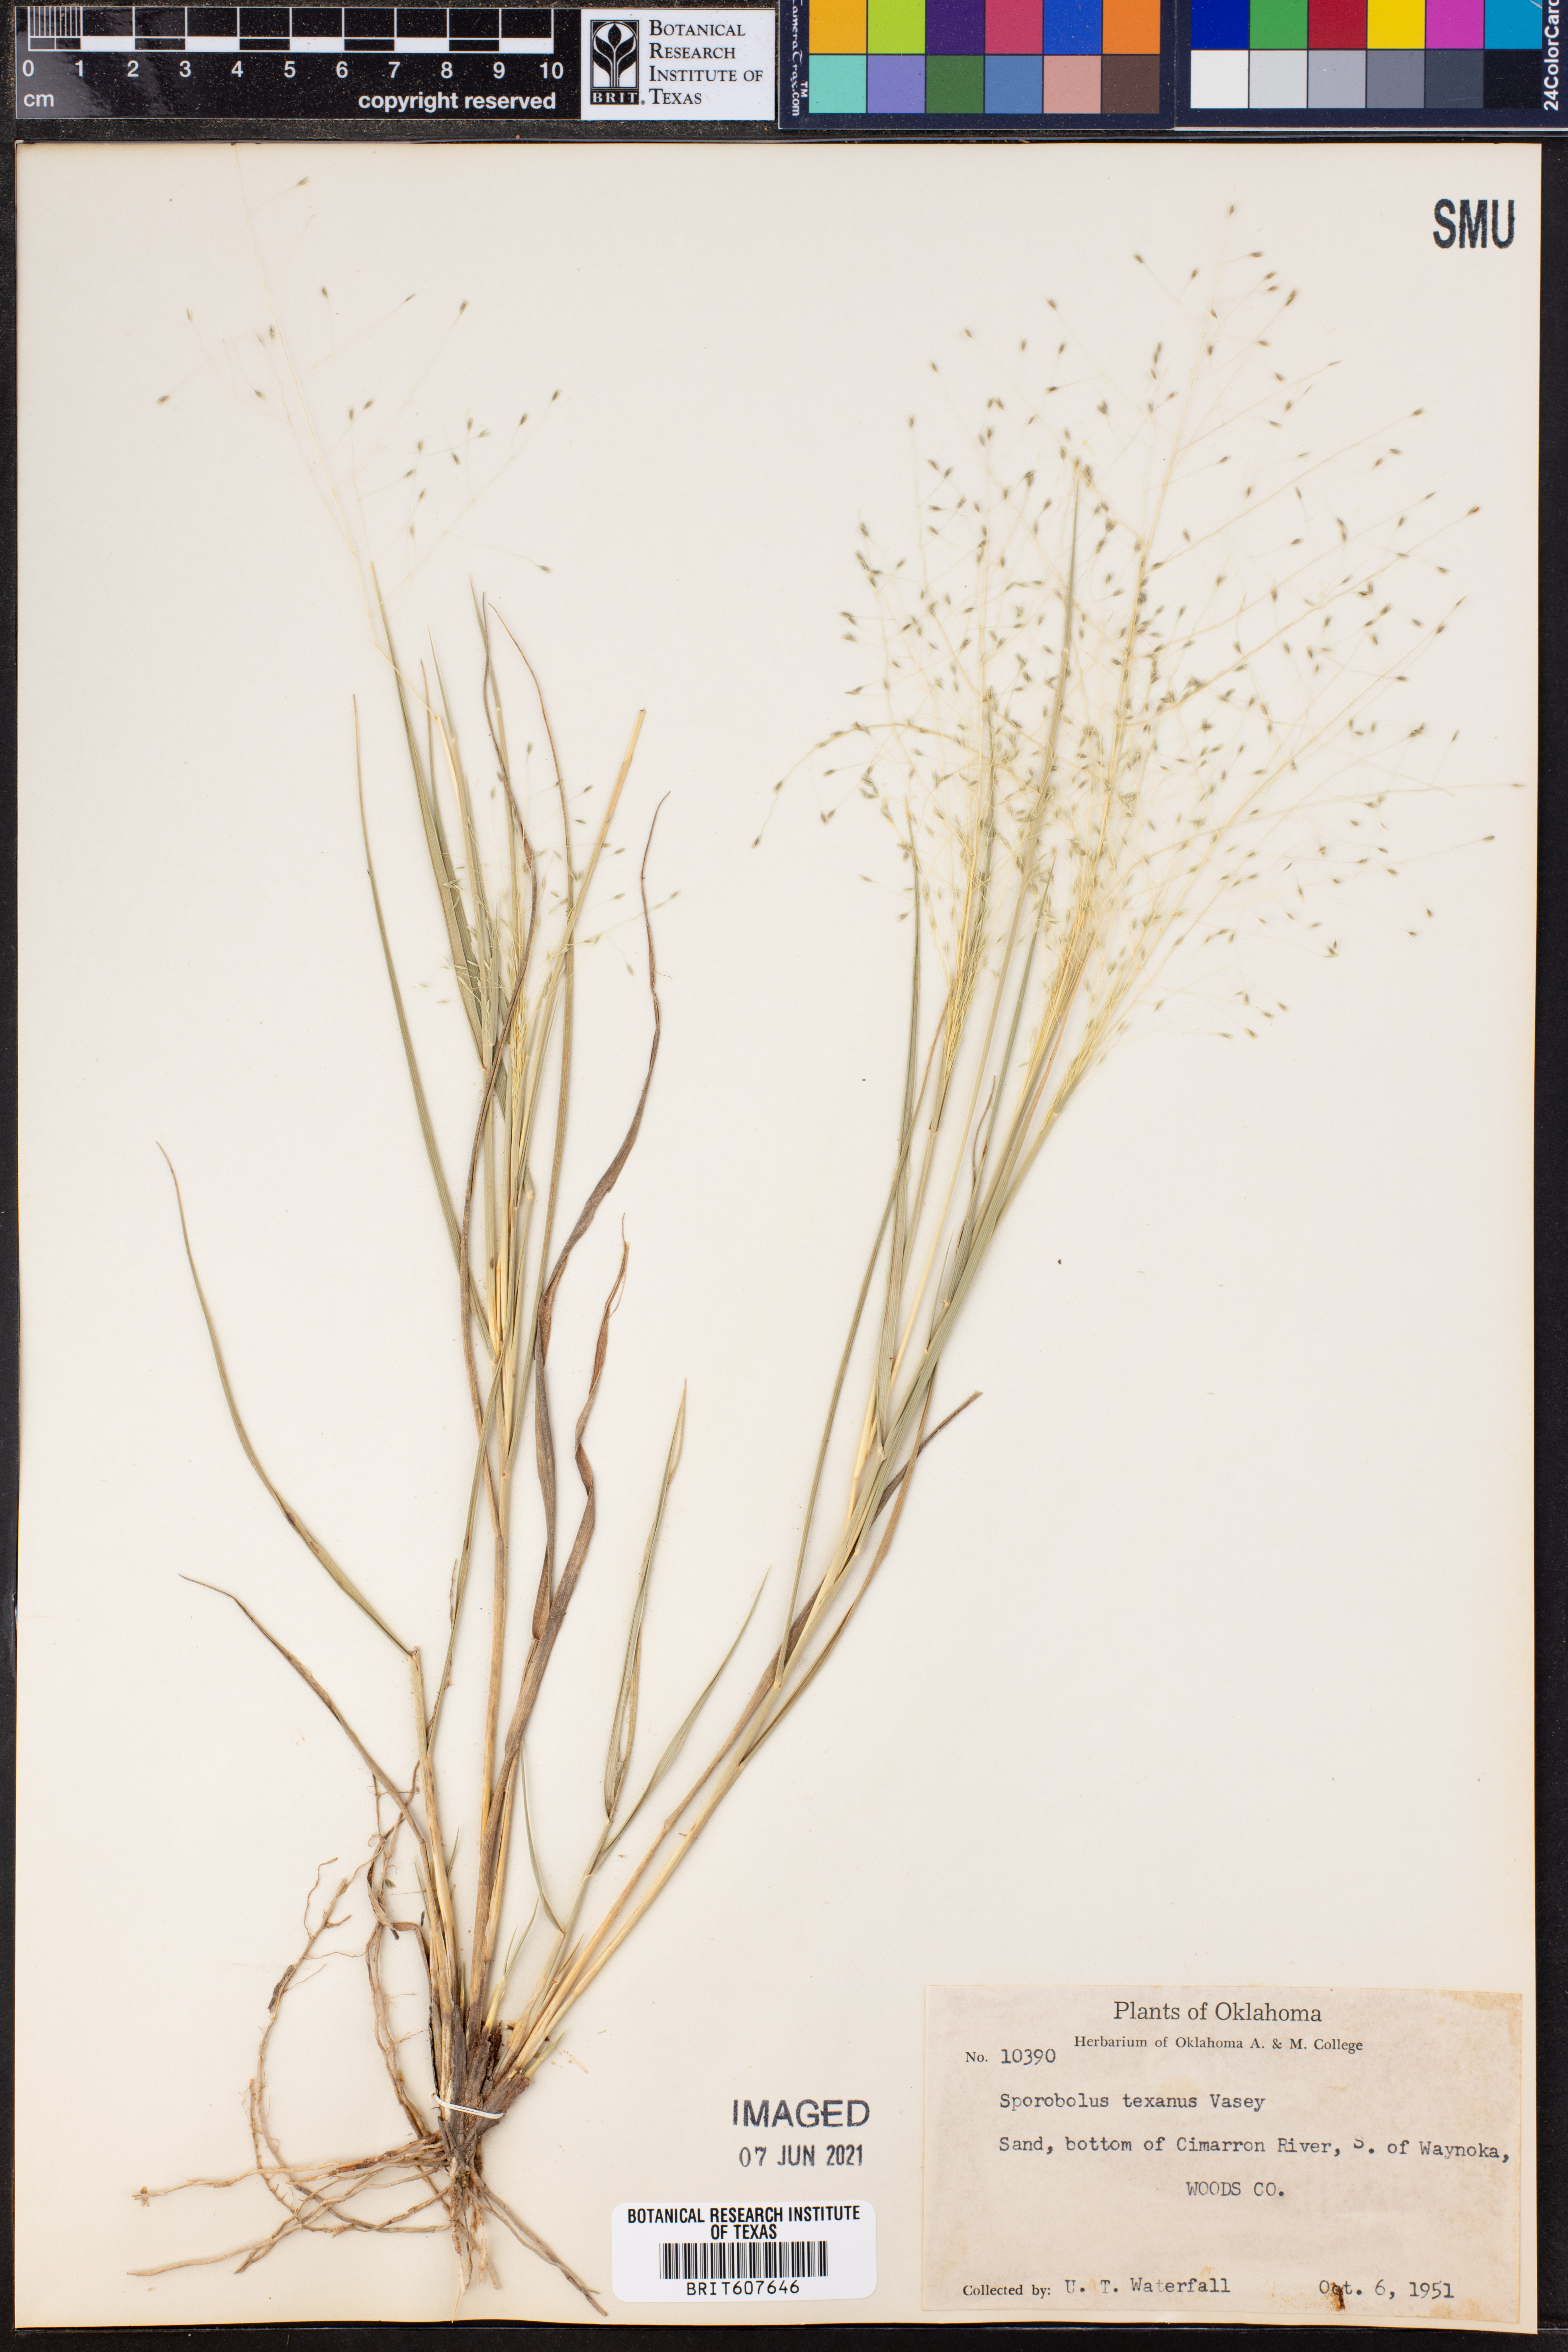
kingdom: Plantae
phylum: Tracheophyta
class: Liliopsida
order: Poales
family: Poaceae
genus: Sporobolus
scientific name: Sporobolus texanus
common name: Texas dropseed
